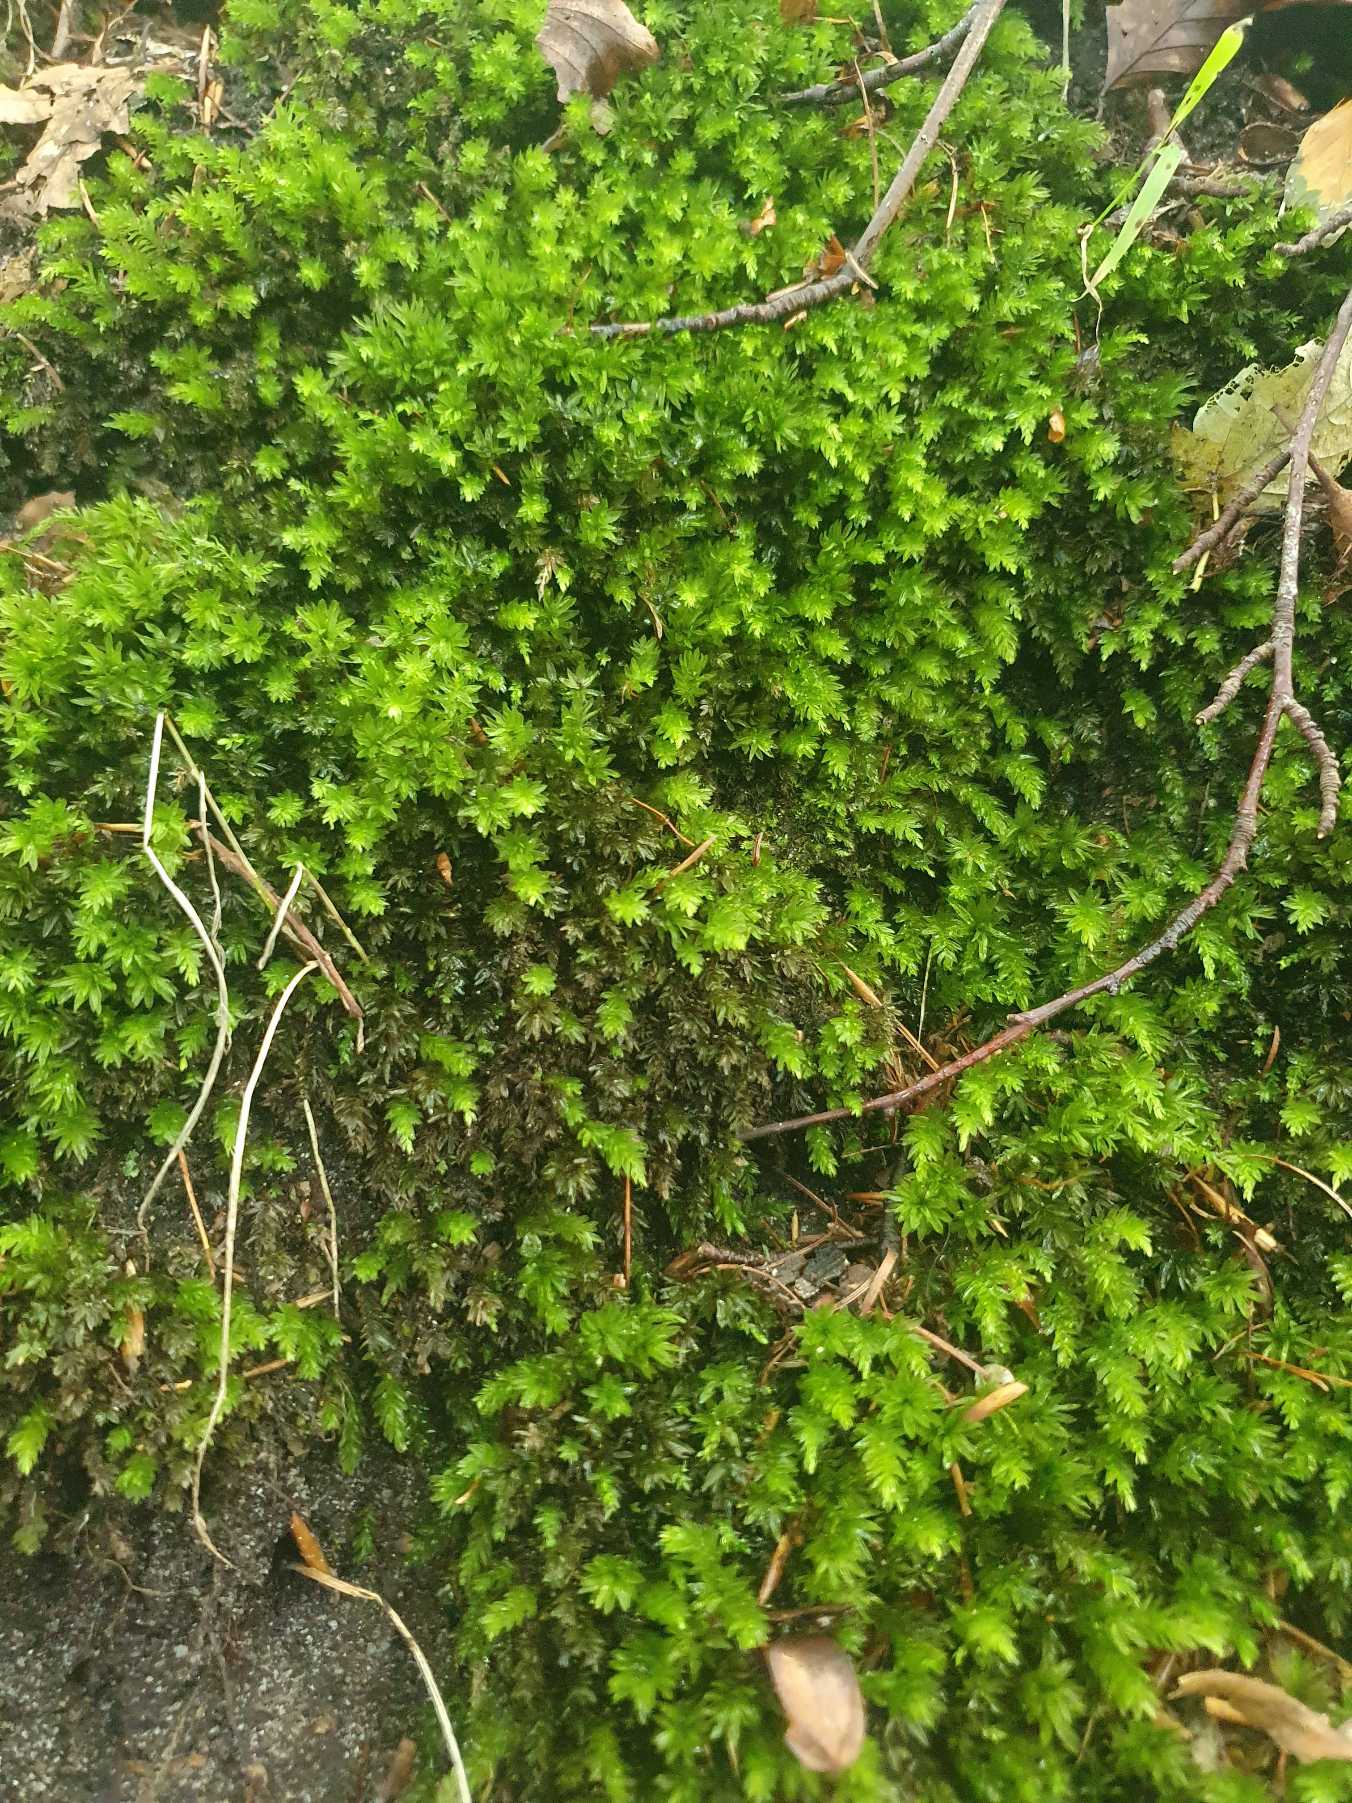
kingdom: Plantae
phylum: Bryophyta
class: Bryopsida
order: Bryales
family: Mniaceae
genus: Mnium
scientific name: Mnium hornum
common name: Brunfiltet stjernemos
